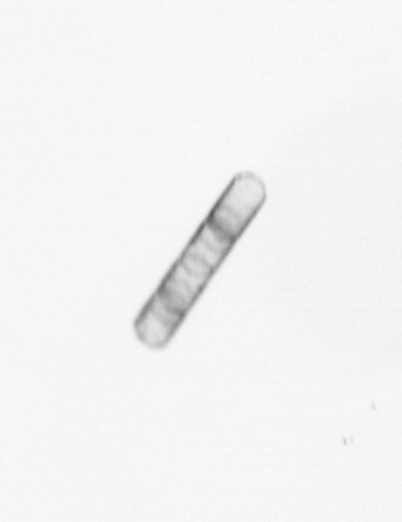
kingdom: Chromista
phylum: Ochrophyta
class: Bacillariophyceae
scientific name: Bacillariophyceae
